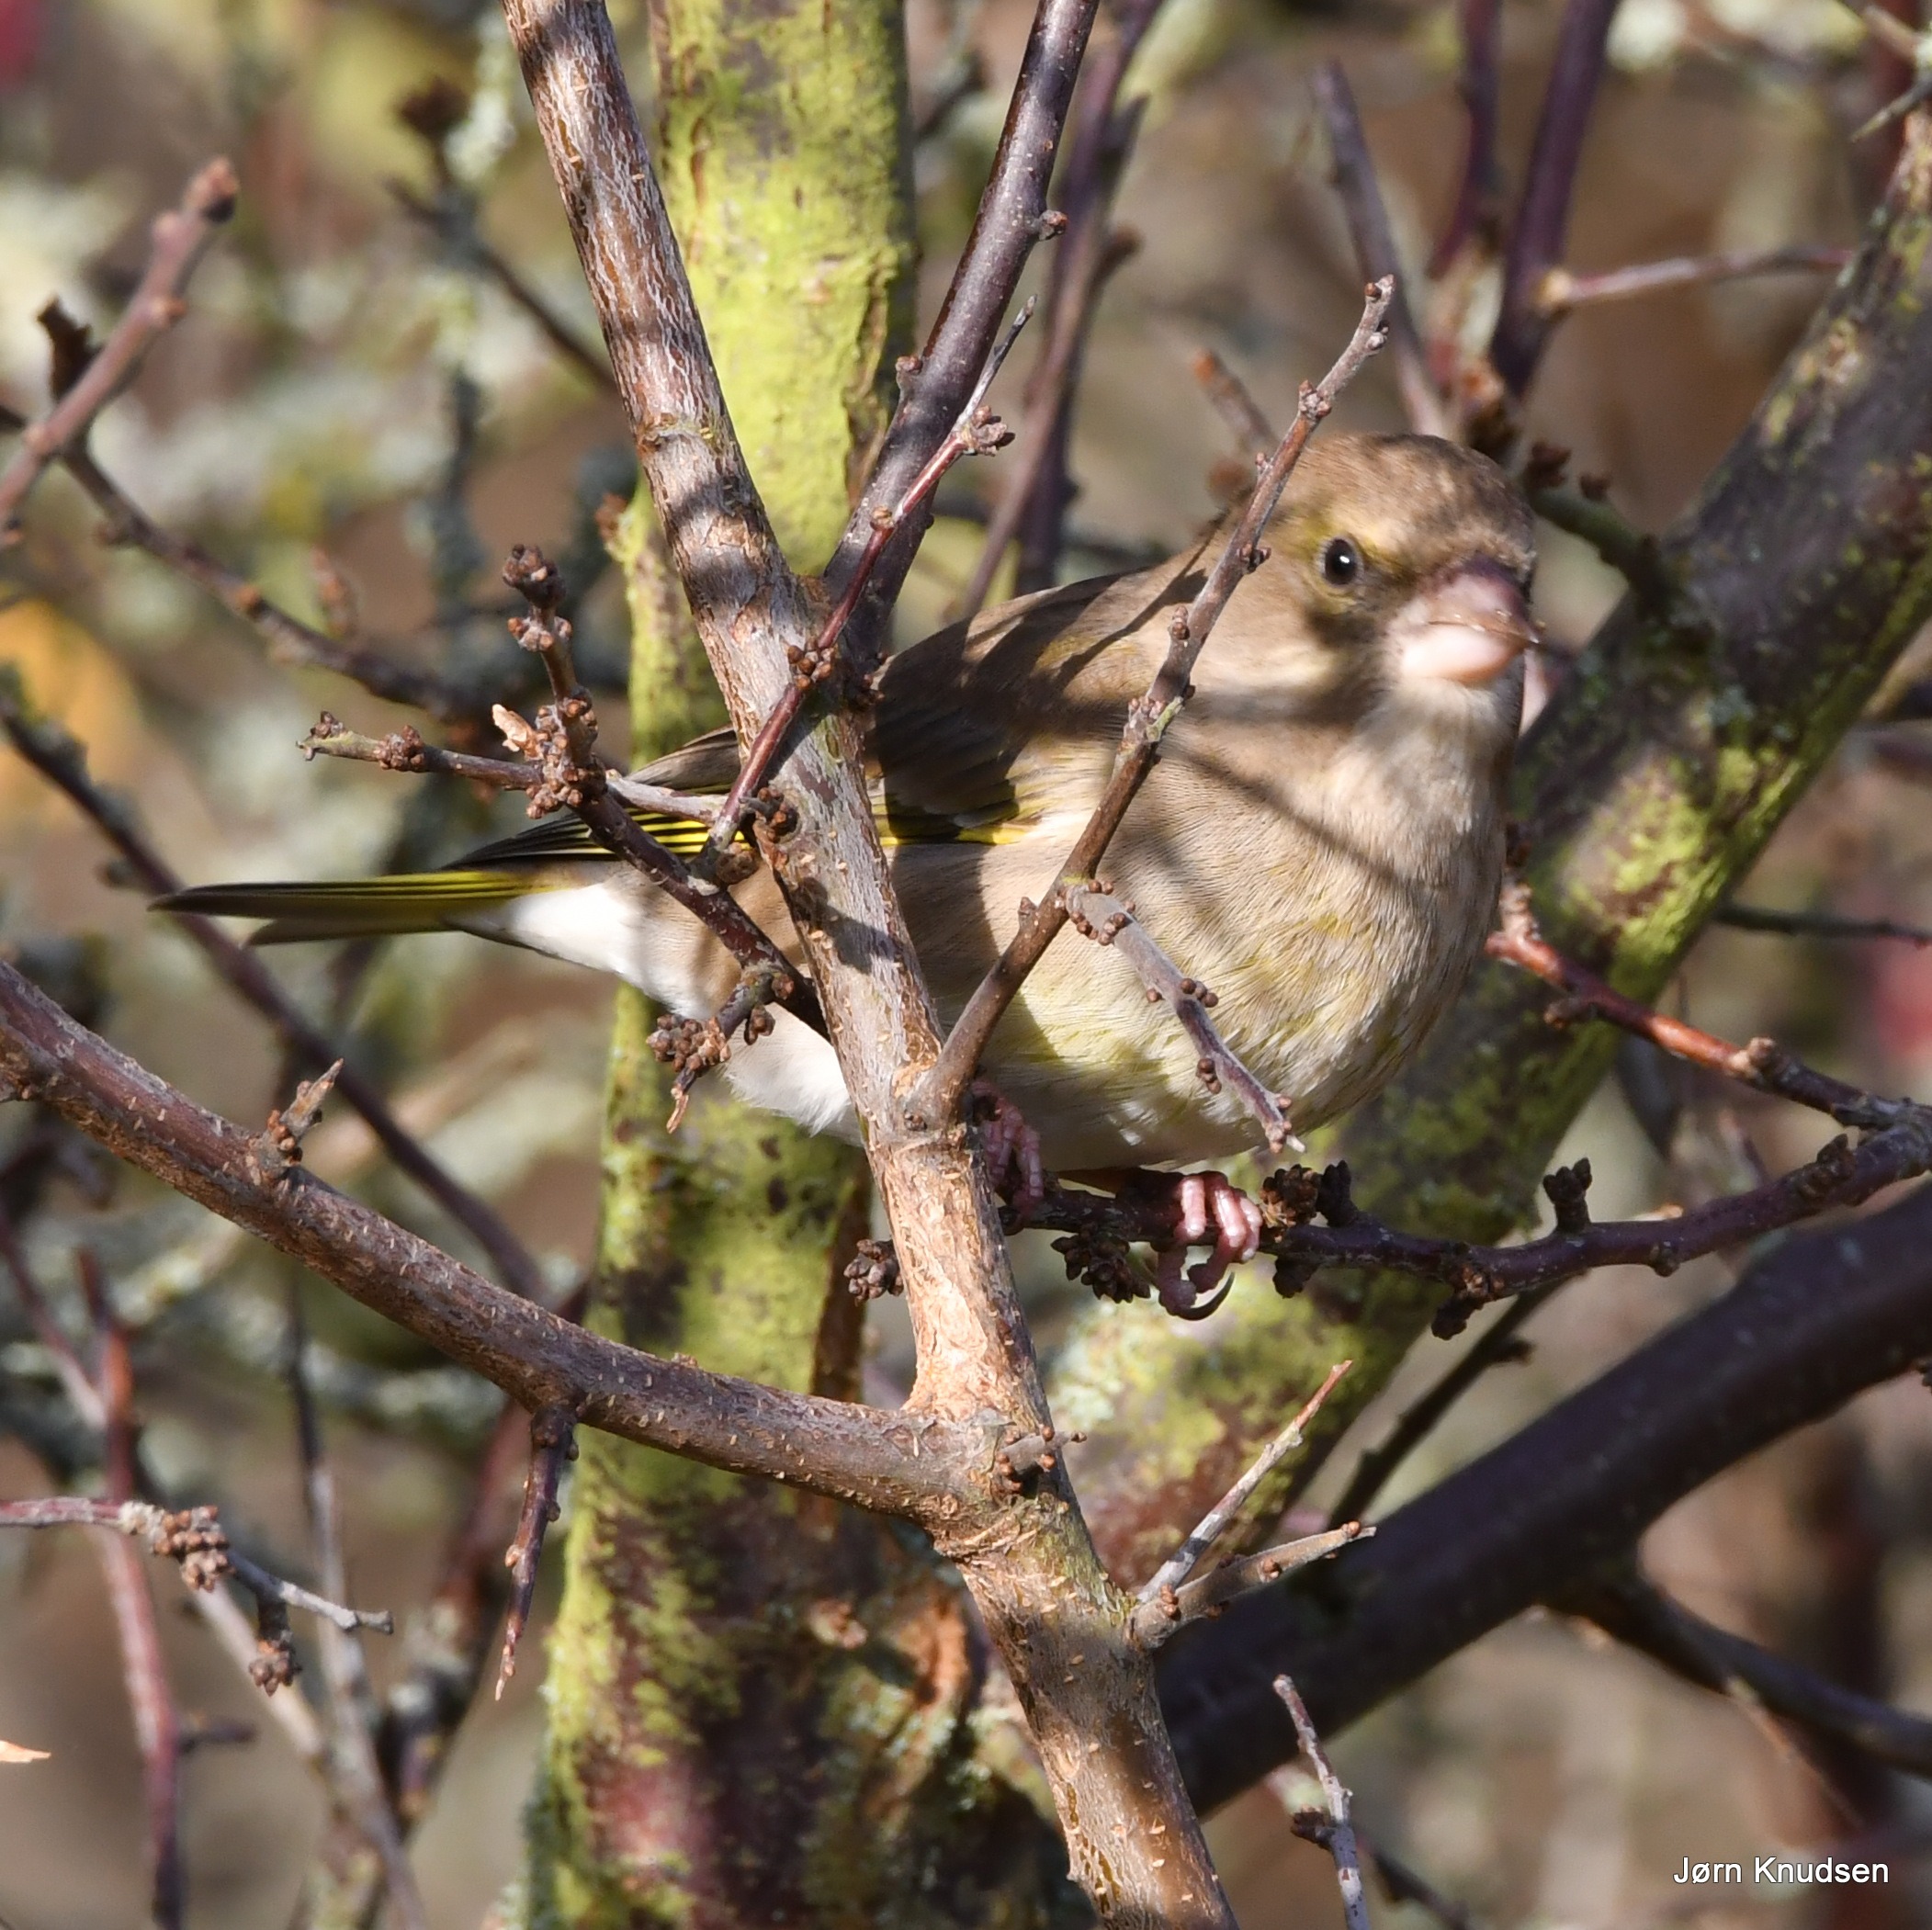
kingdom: Plantae
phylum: Tracheophyta
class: Liliopsida
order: Poales
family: Poaceae
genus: Chloris
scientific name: Chloris chloris
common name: Grønirisk
